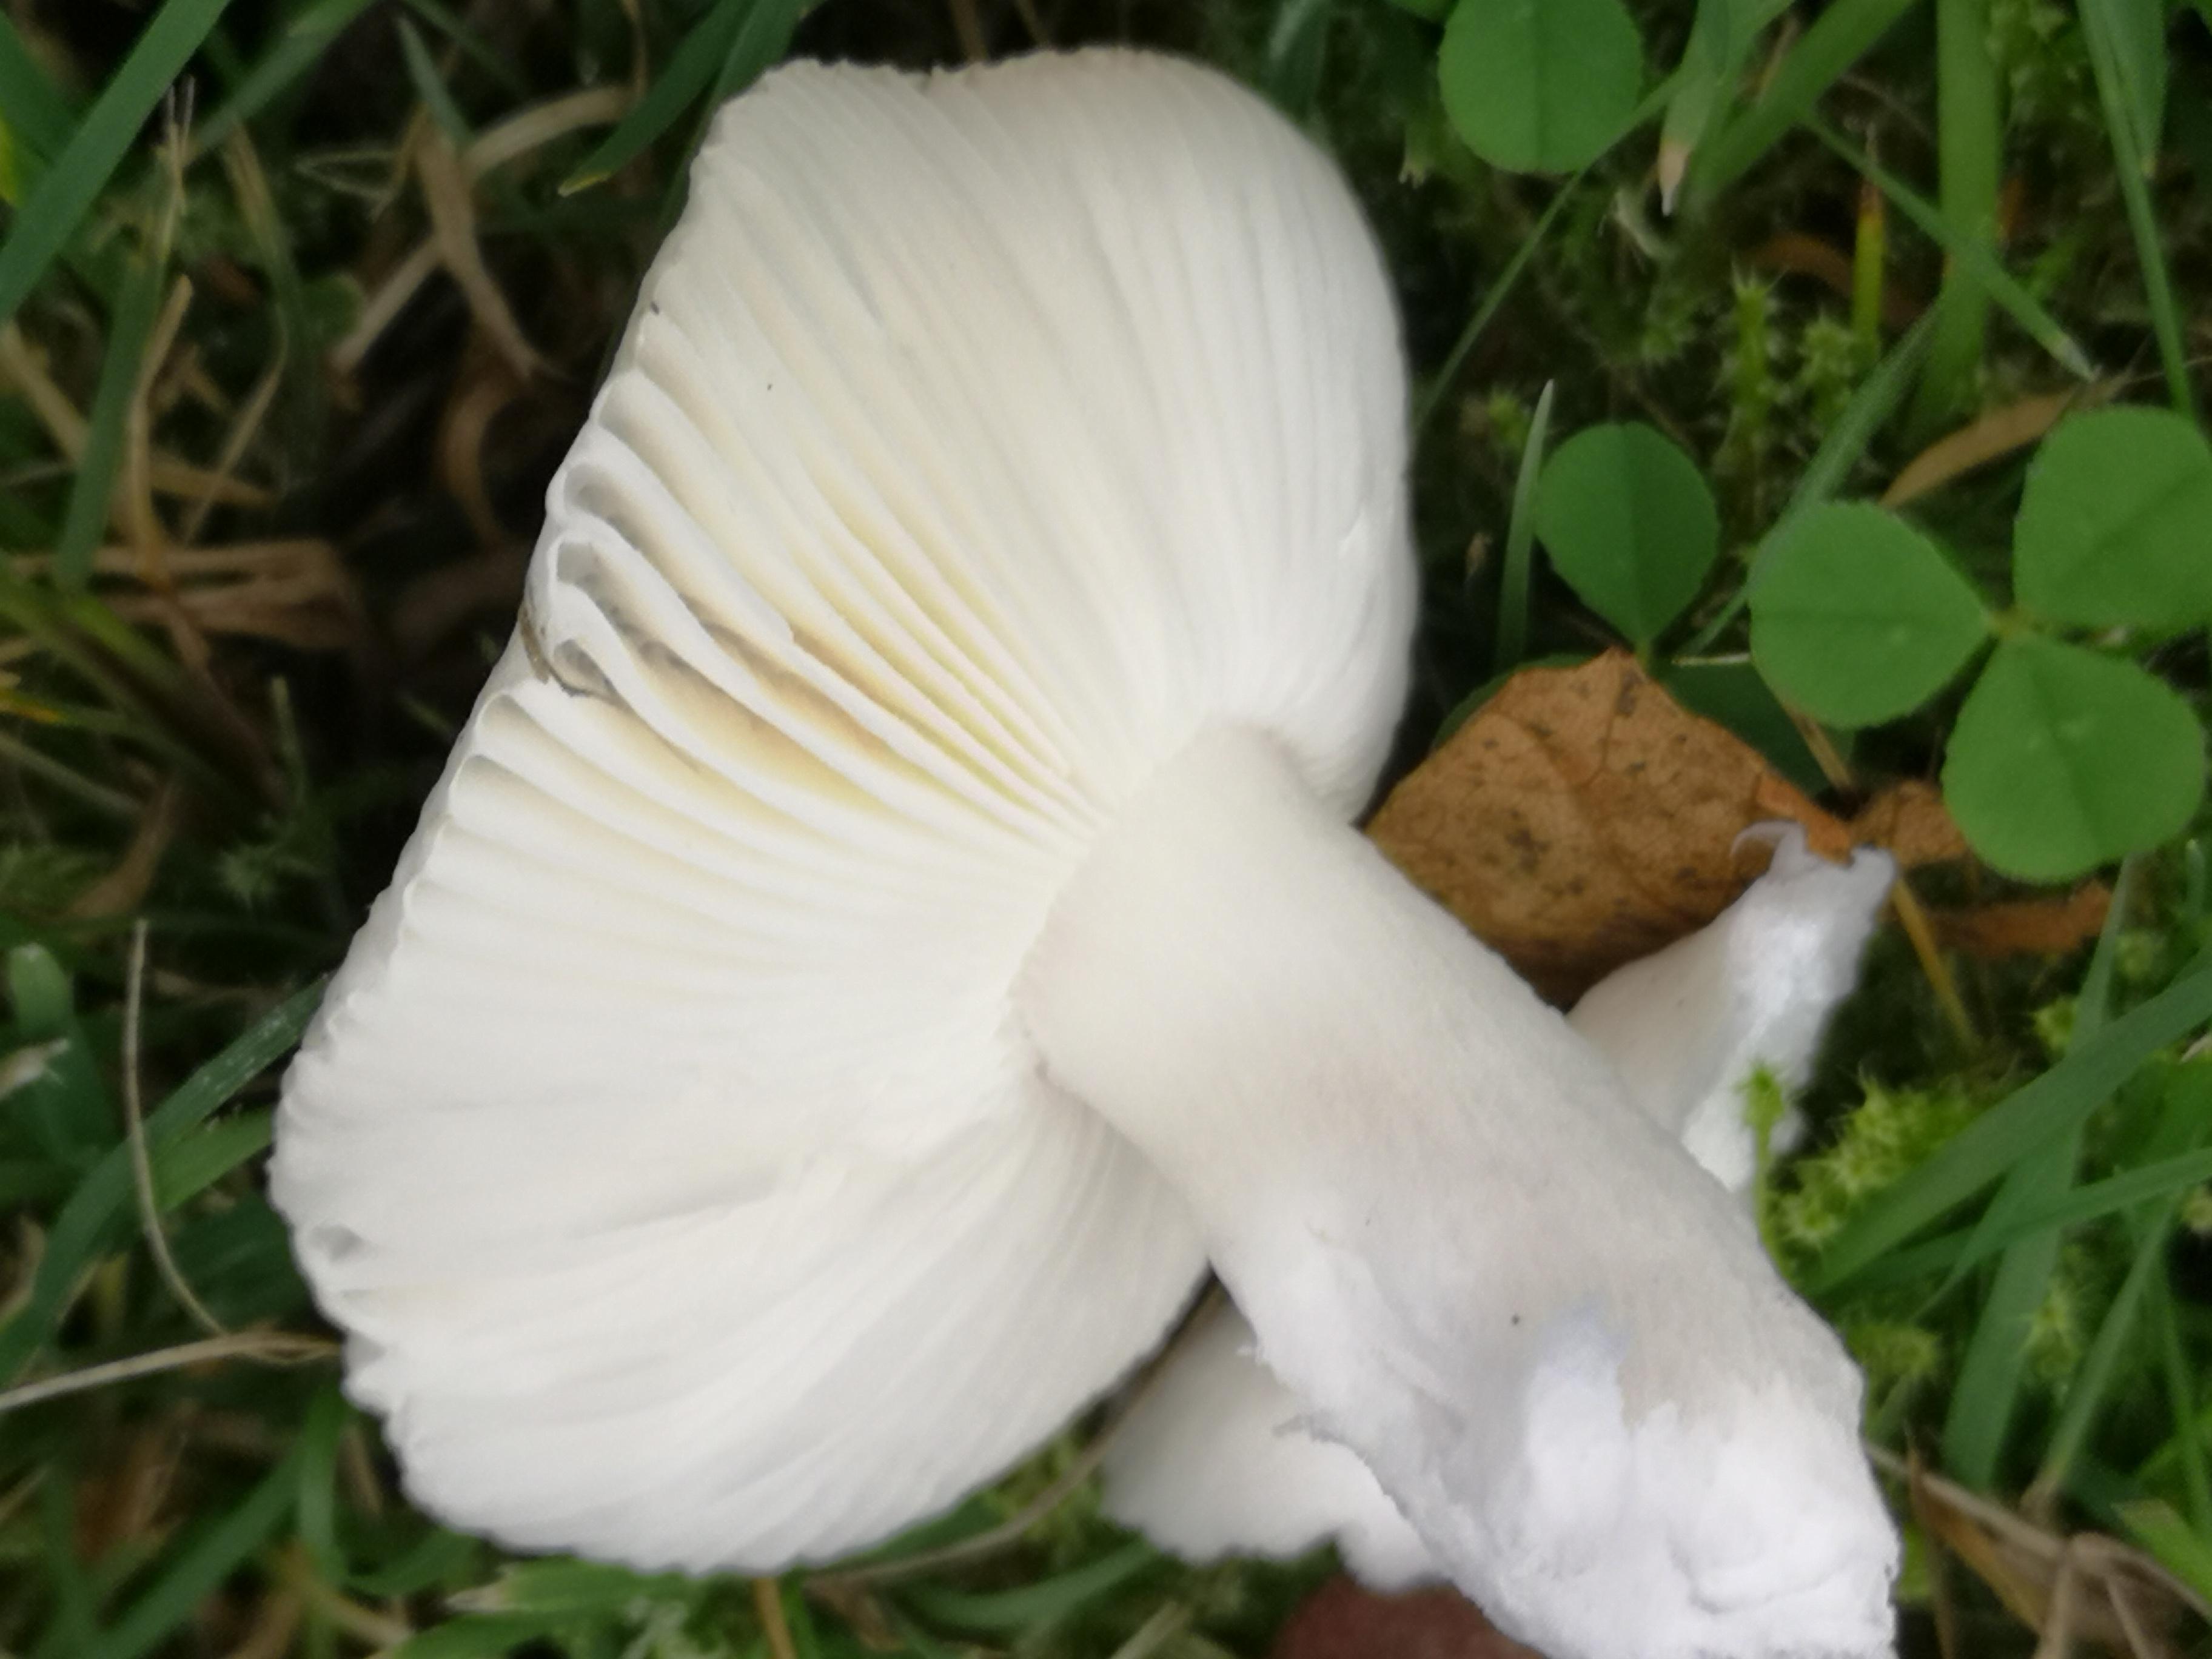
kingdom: Fungi
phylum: Basidiomycota
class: Agaricomycetes
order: Russulales
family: Russulaceae
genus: Russula
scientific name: Russula betularum
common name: bleg gift-skørhat
